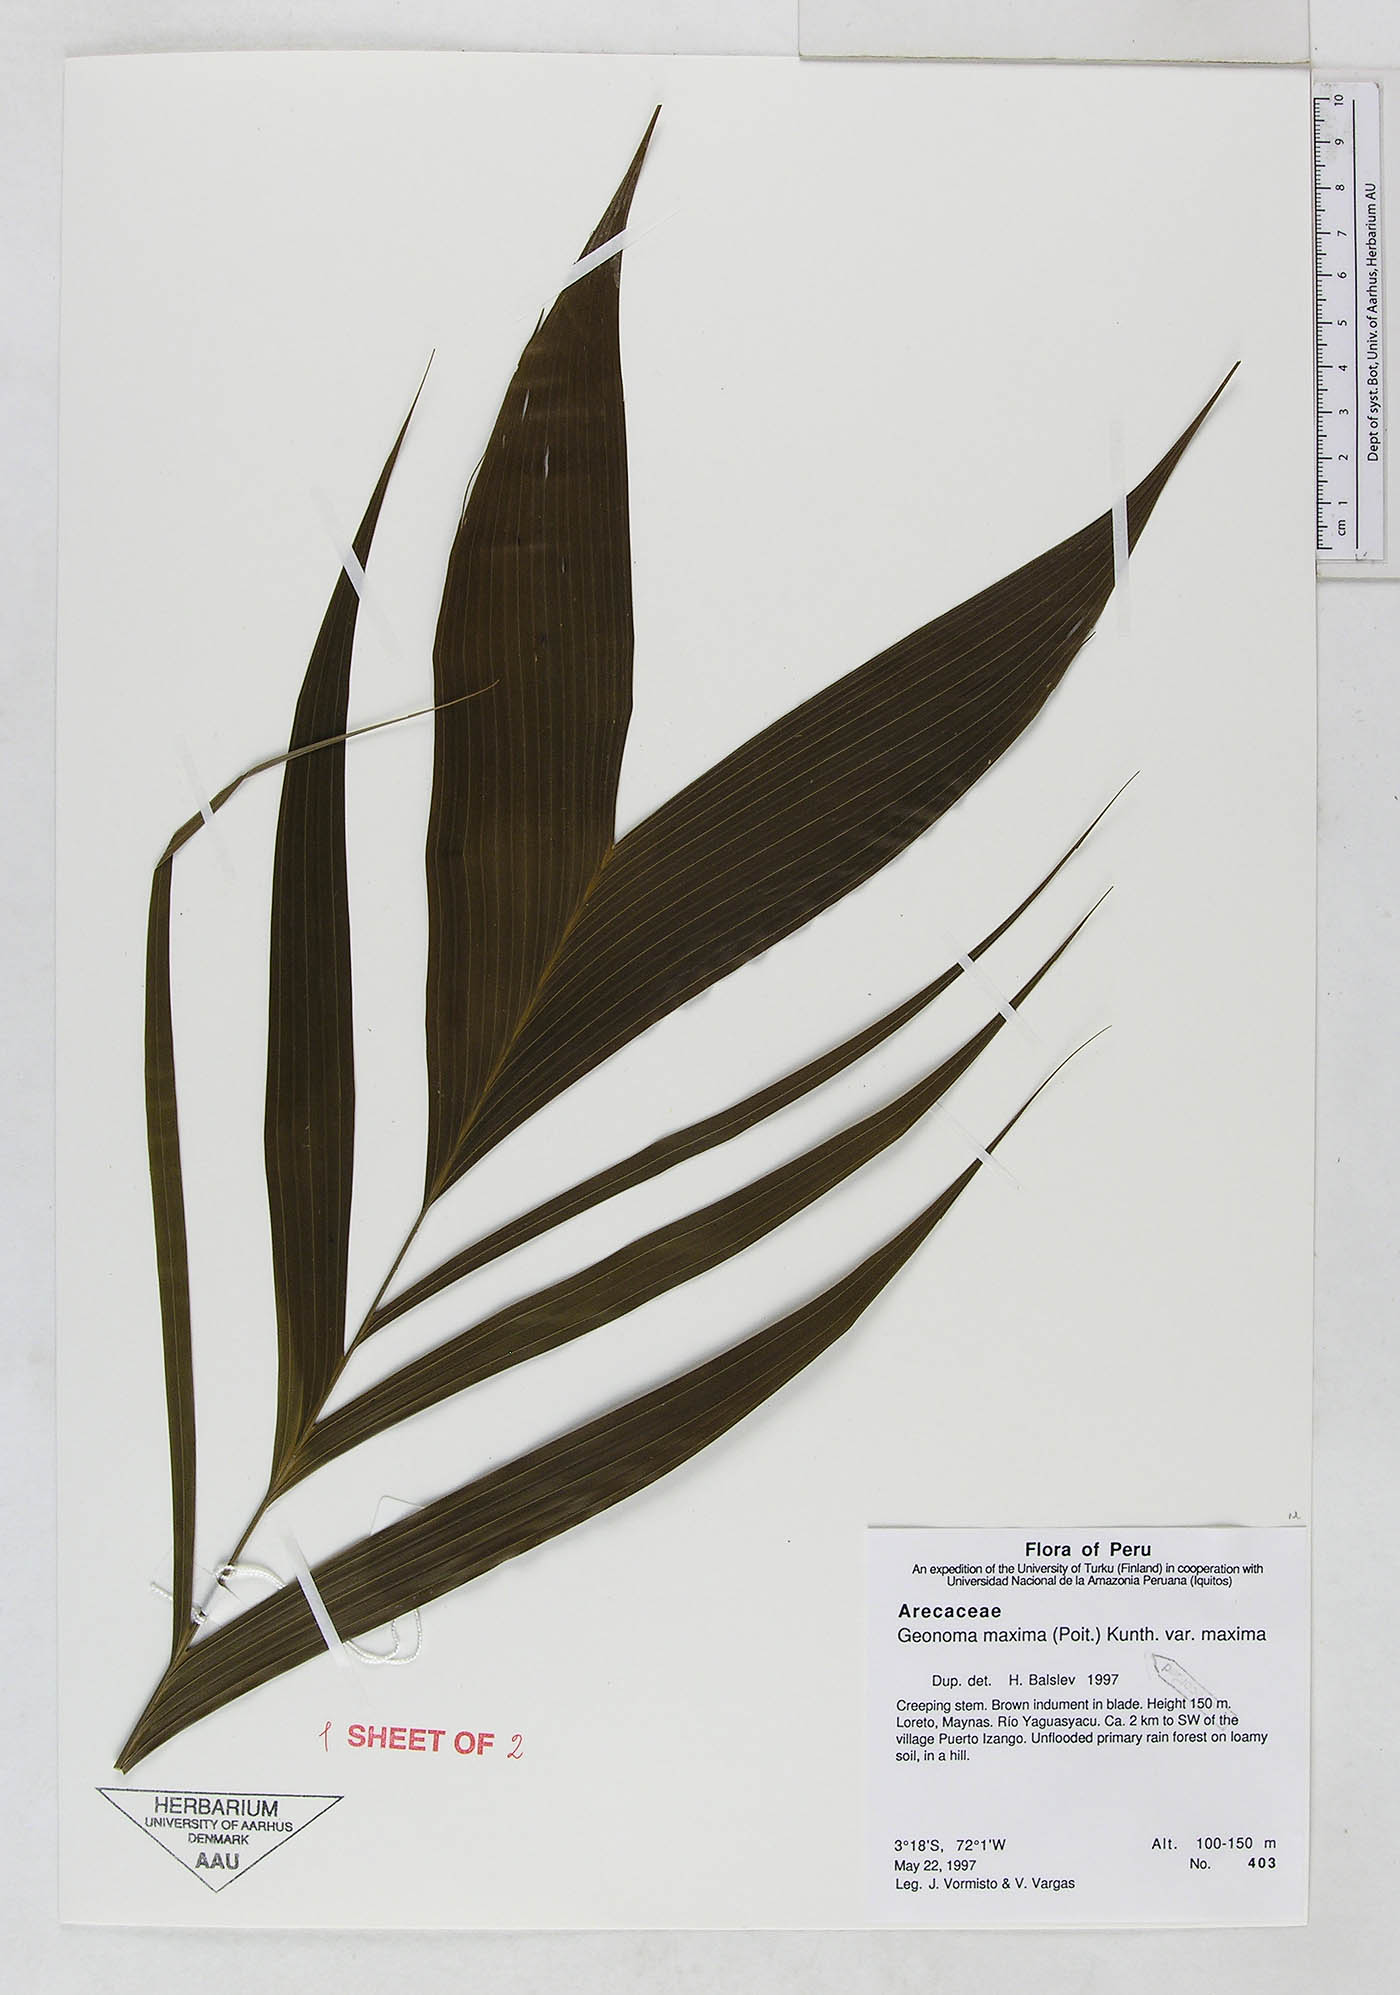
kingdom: Plantae
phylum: Tracheophyta
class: Liliopsida
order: Arecales
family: Arecaceae
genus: Geonoma
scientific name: Geonoma maxima
